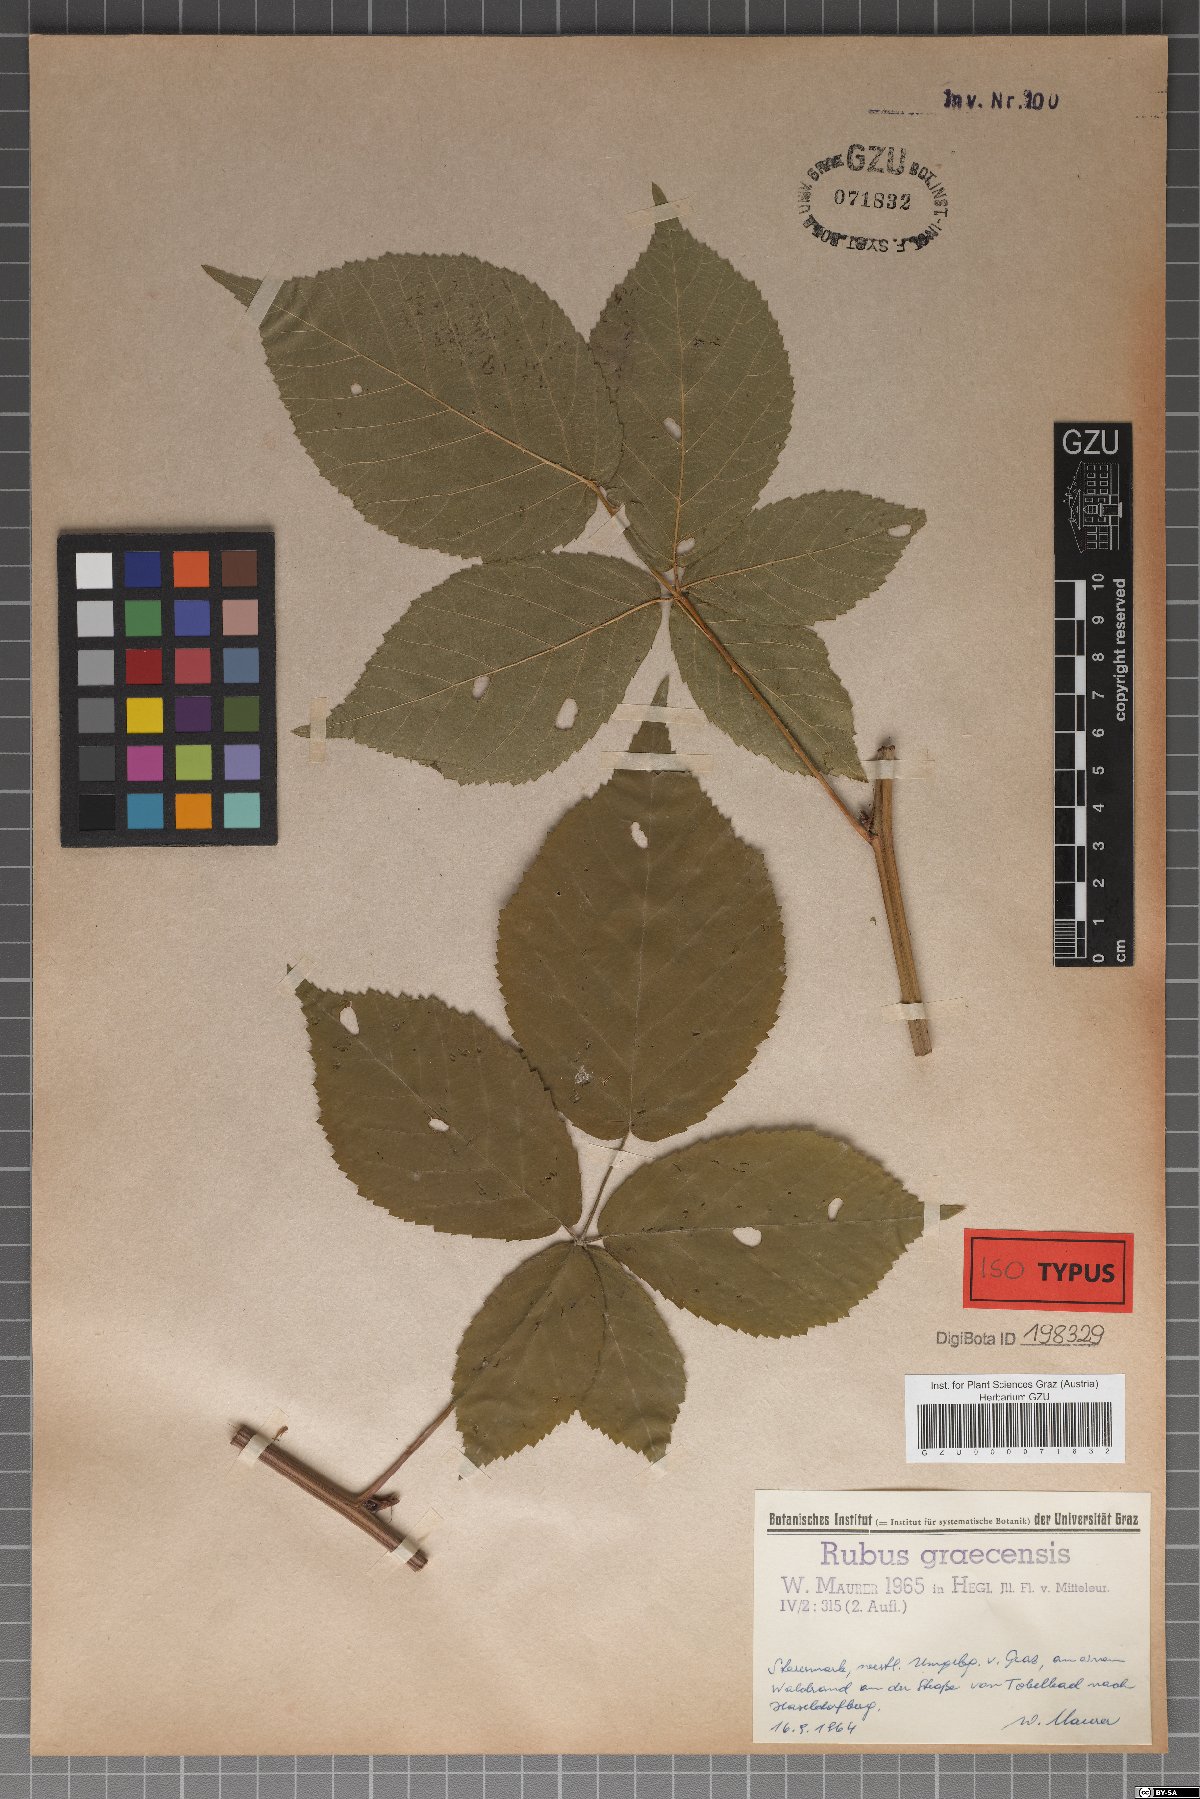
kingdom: Plantae
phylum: Tracheophyta
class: Magnoliopsida
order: Rosales
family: Rosaceae
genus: Rubus
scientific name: Rubus graecensis
